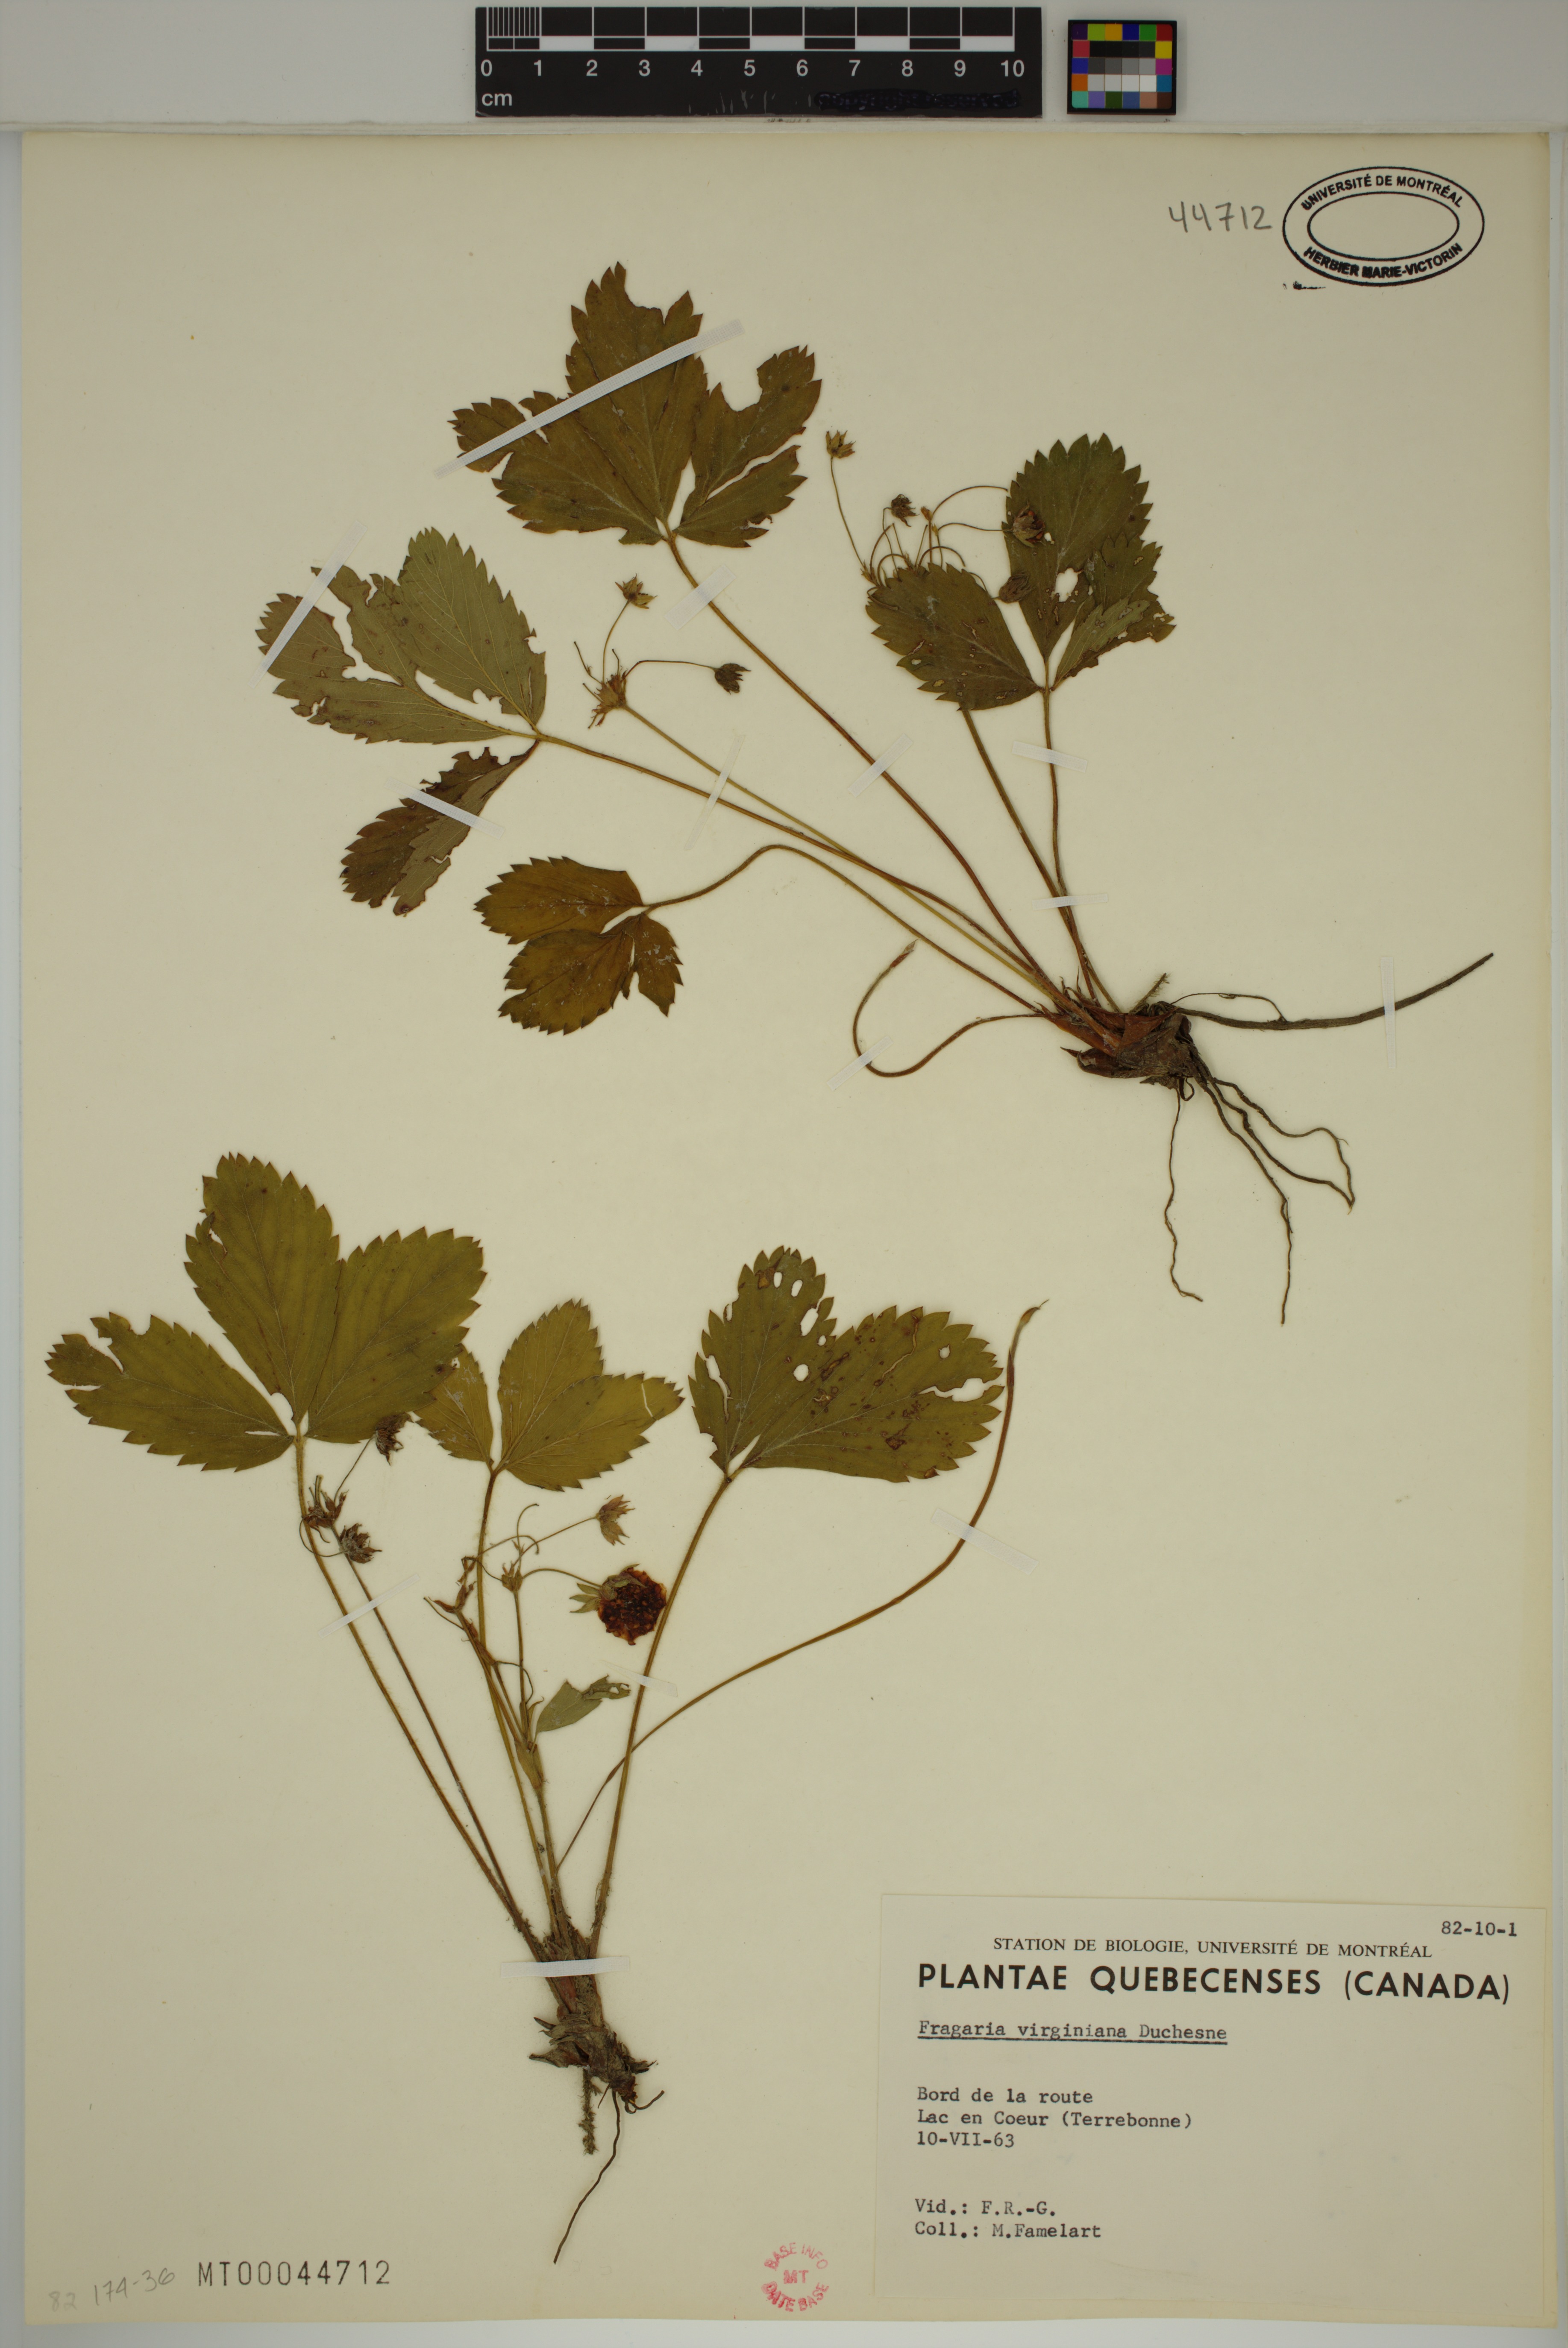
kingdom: Plantae
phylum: Tracheophyta
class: Magnoliopsida
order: Rosales
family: Rosaceae
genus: Fragaria
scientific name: Fragaria virginiana
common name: Thickleaved wild strawberry
